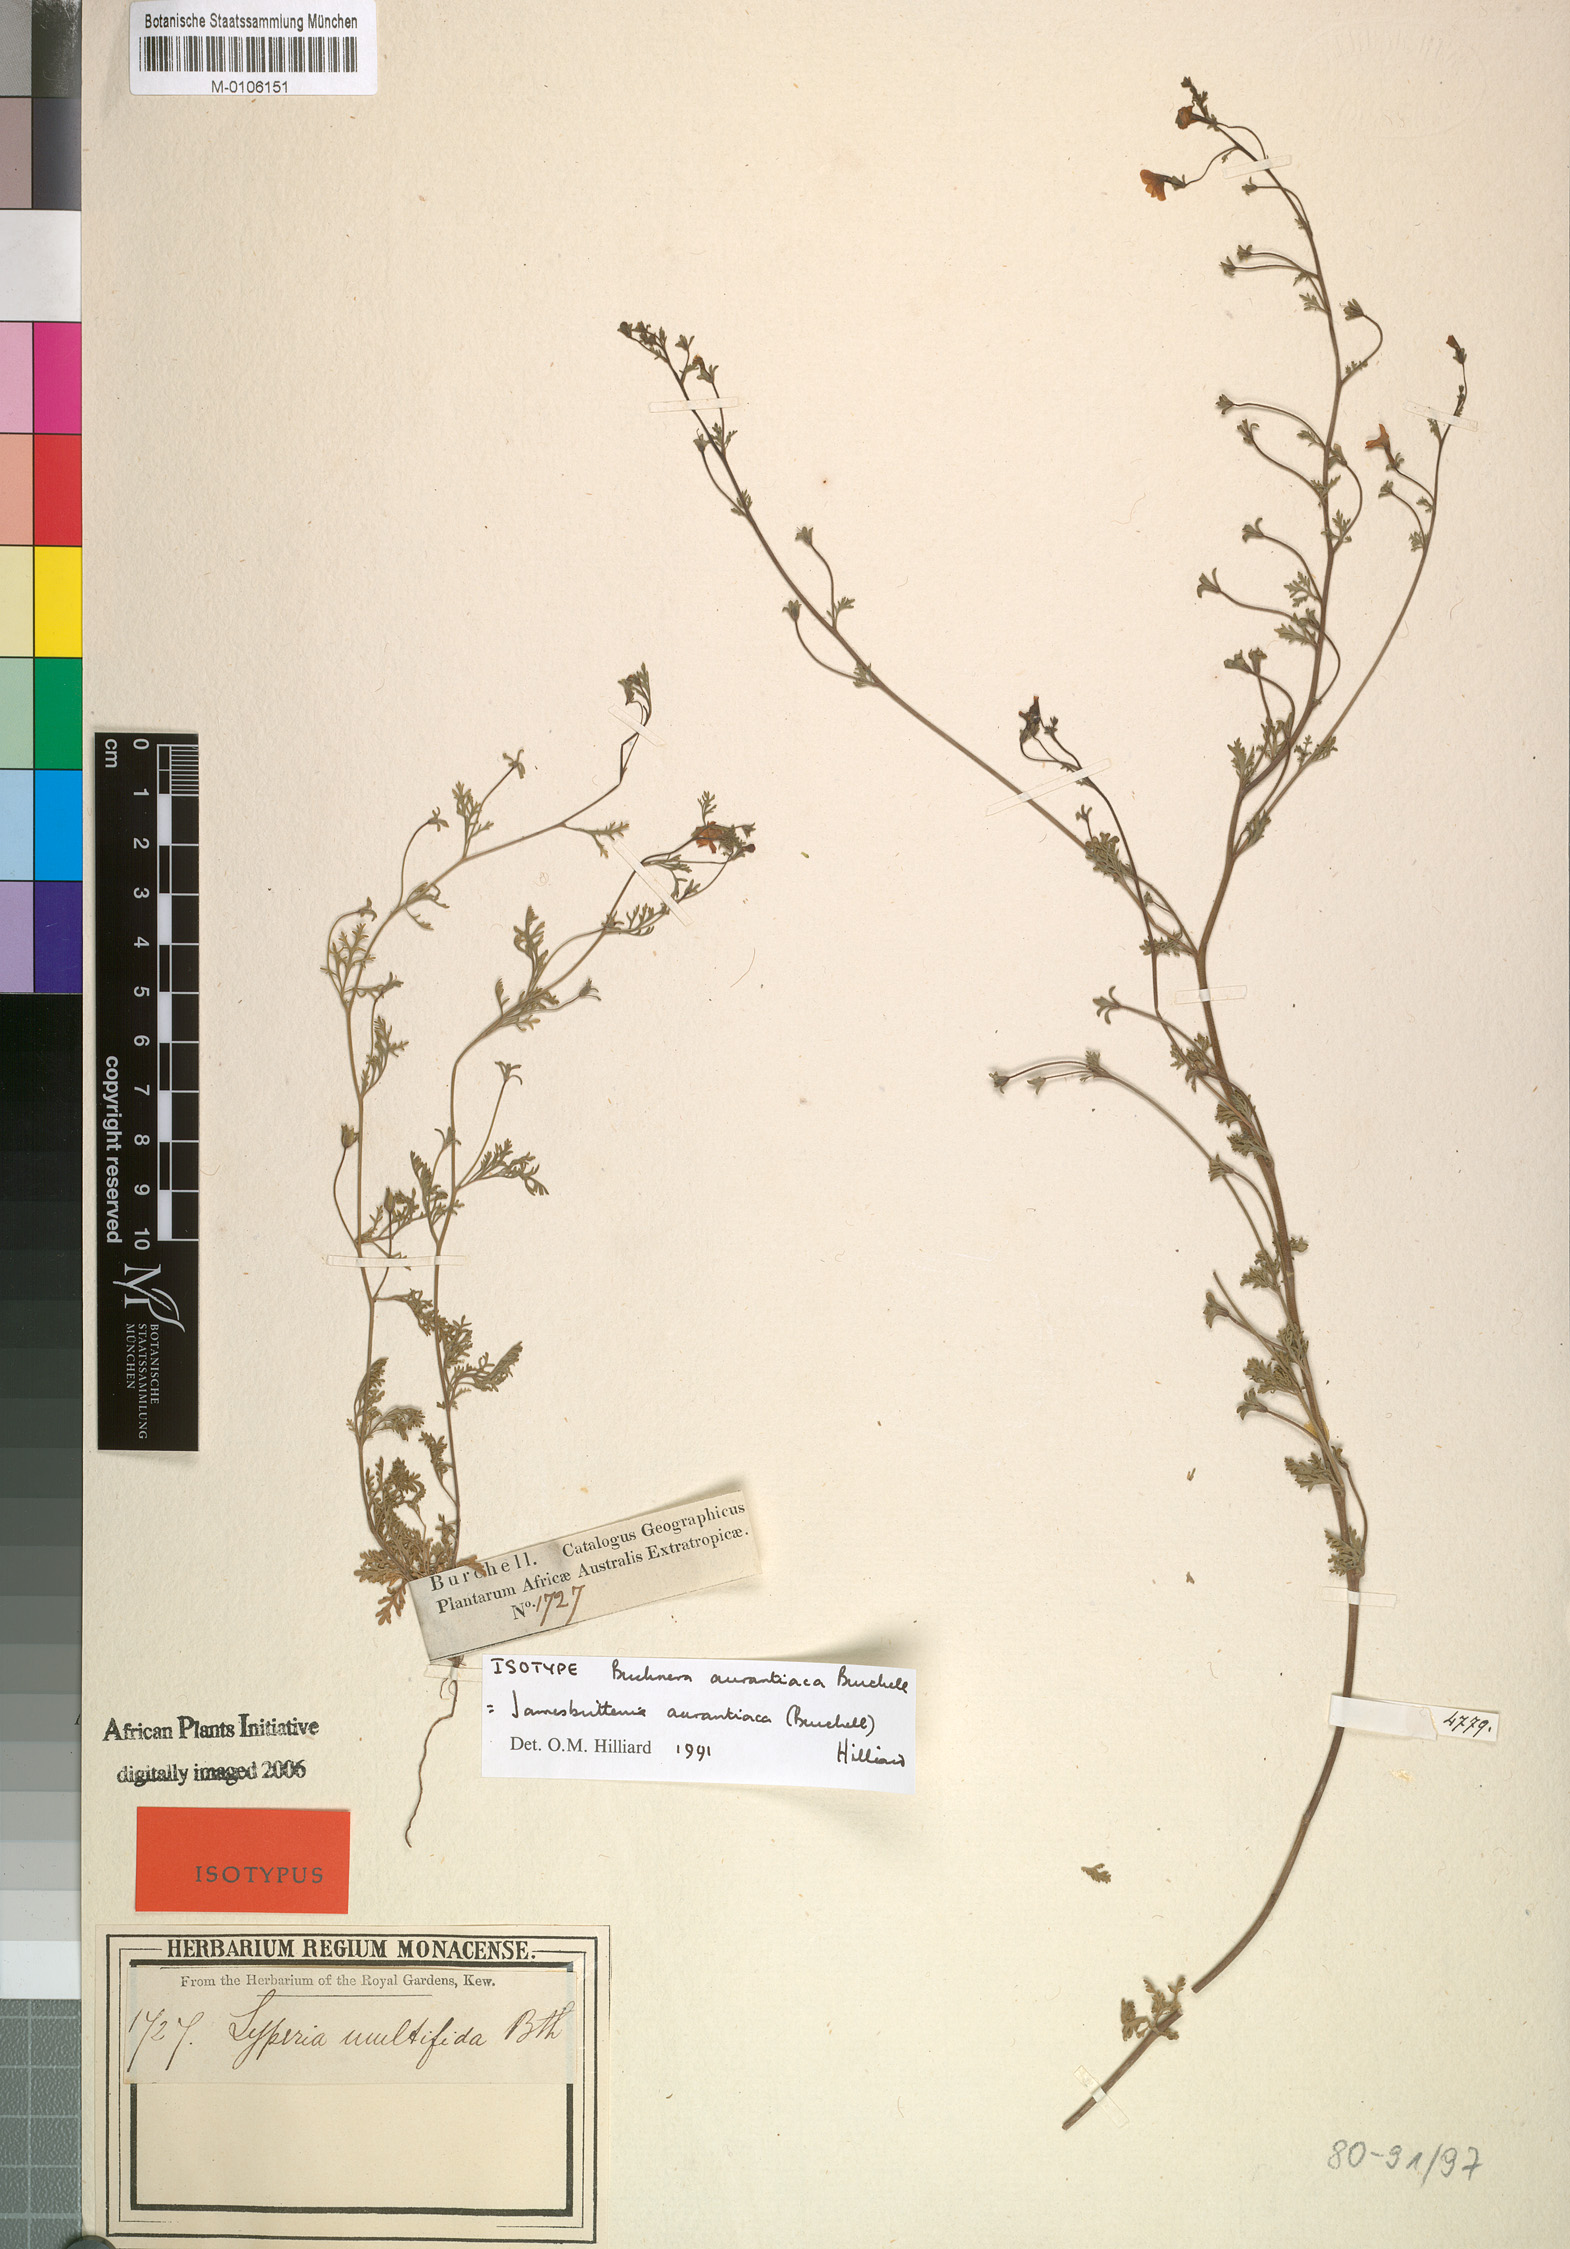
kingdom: Plantae
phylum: Tracheophyta
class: Magnoliopsida
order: Lamiales
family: Scrophulariaceae
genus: Jamesbrittenia
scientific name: Jamesbrittenia aurantiaca
